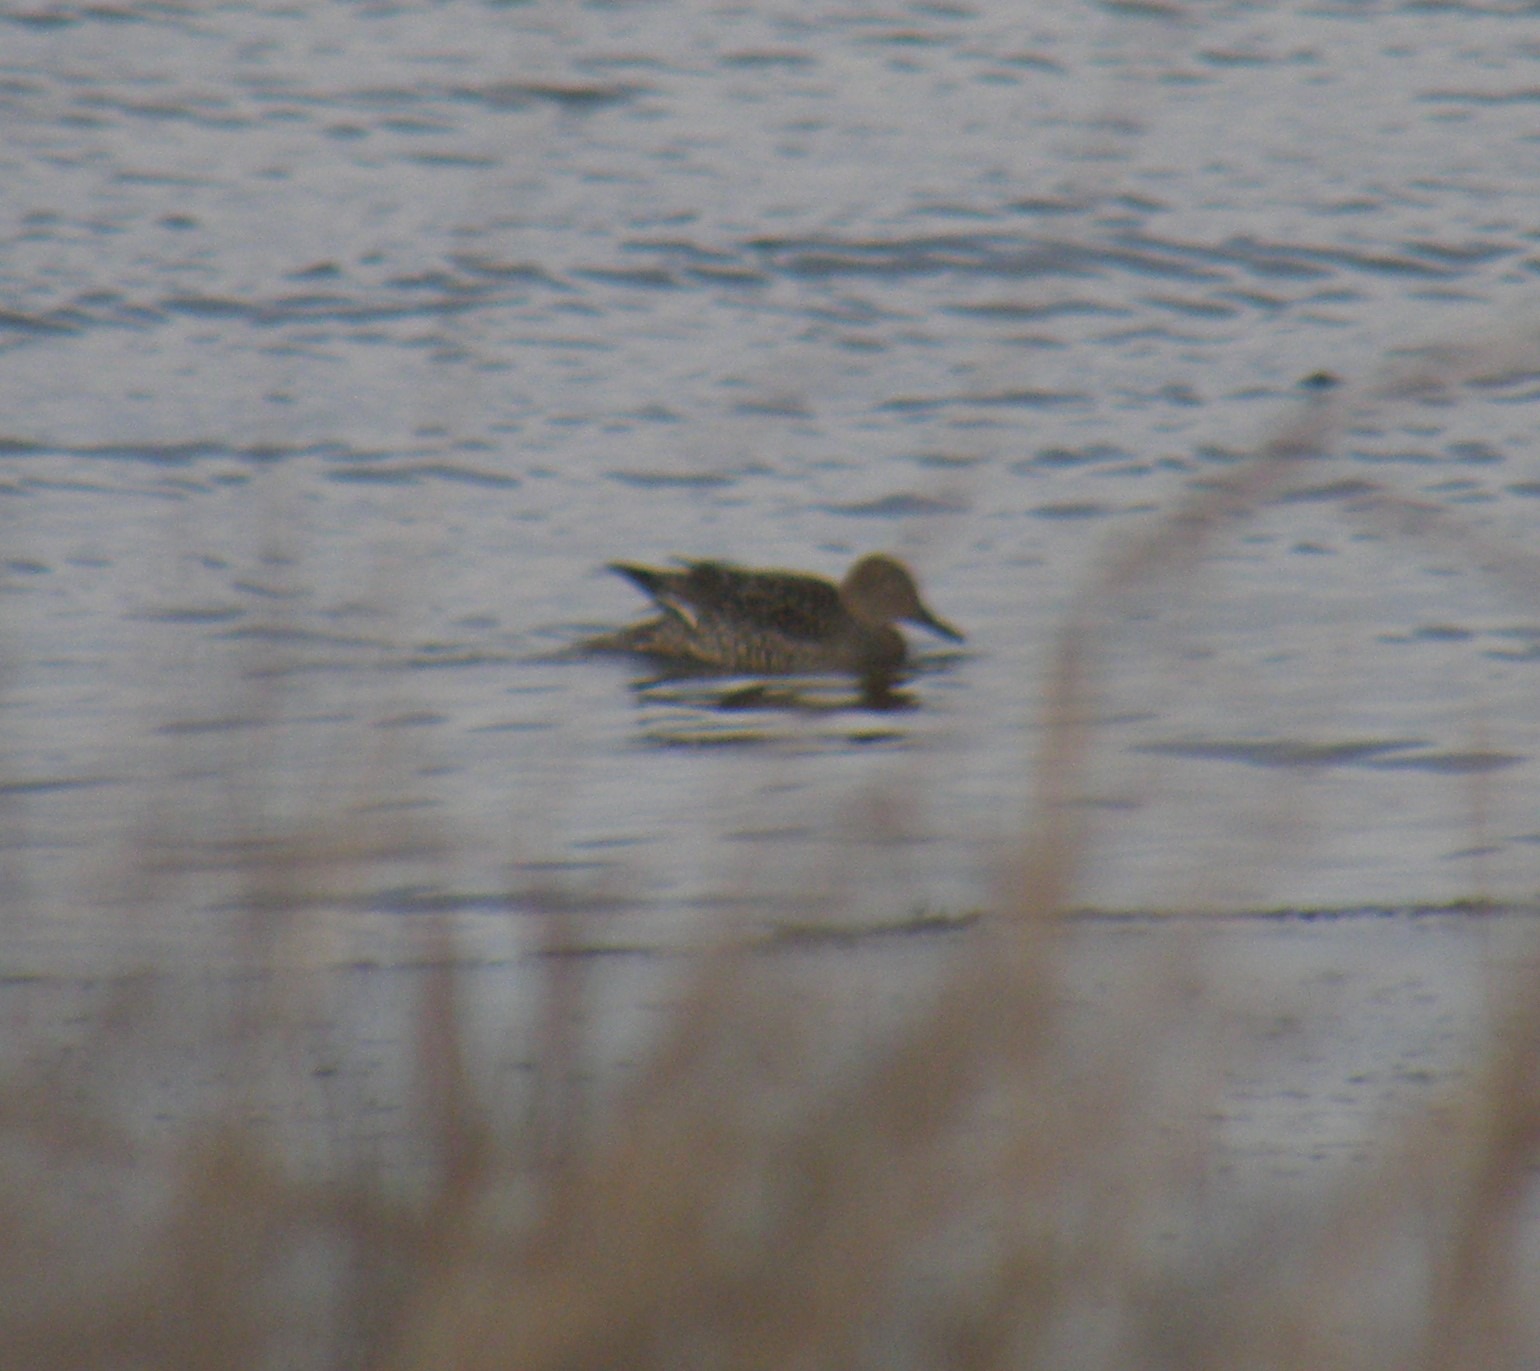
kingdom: Animalia
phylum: Chordata
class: Aves
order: Anseriformes
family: Anatidae
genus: Anas
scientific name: Anas acuta
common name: Spidsand
